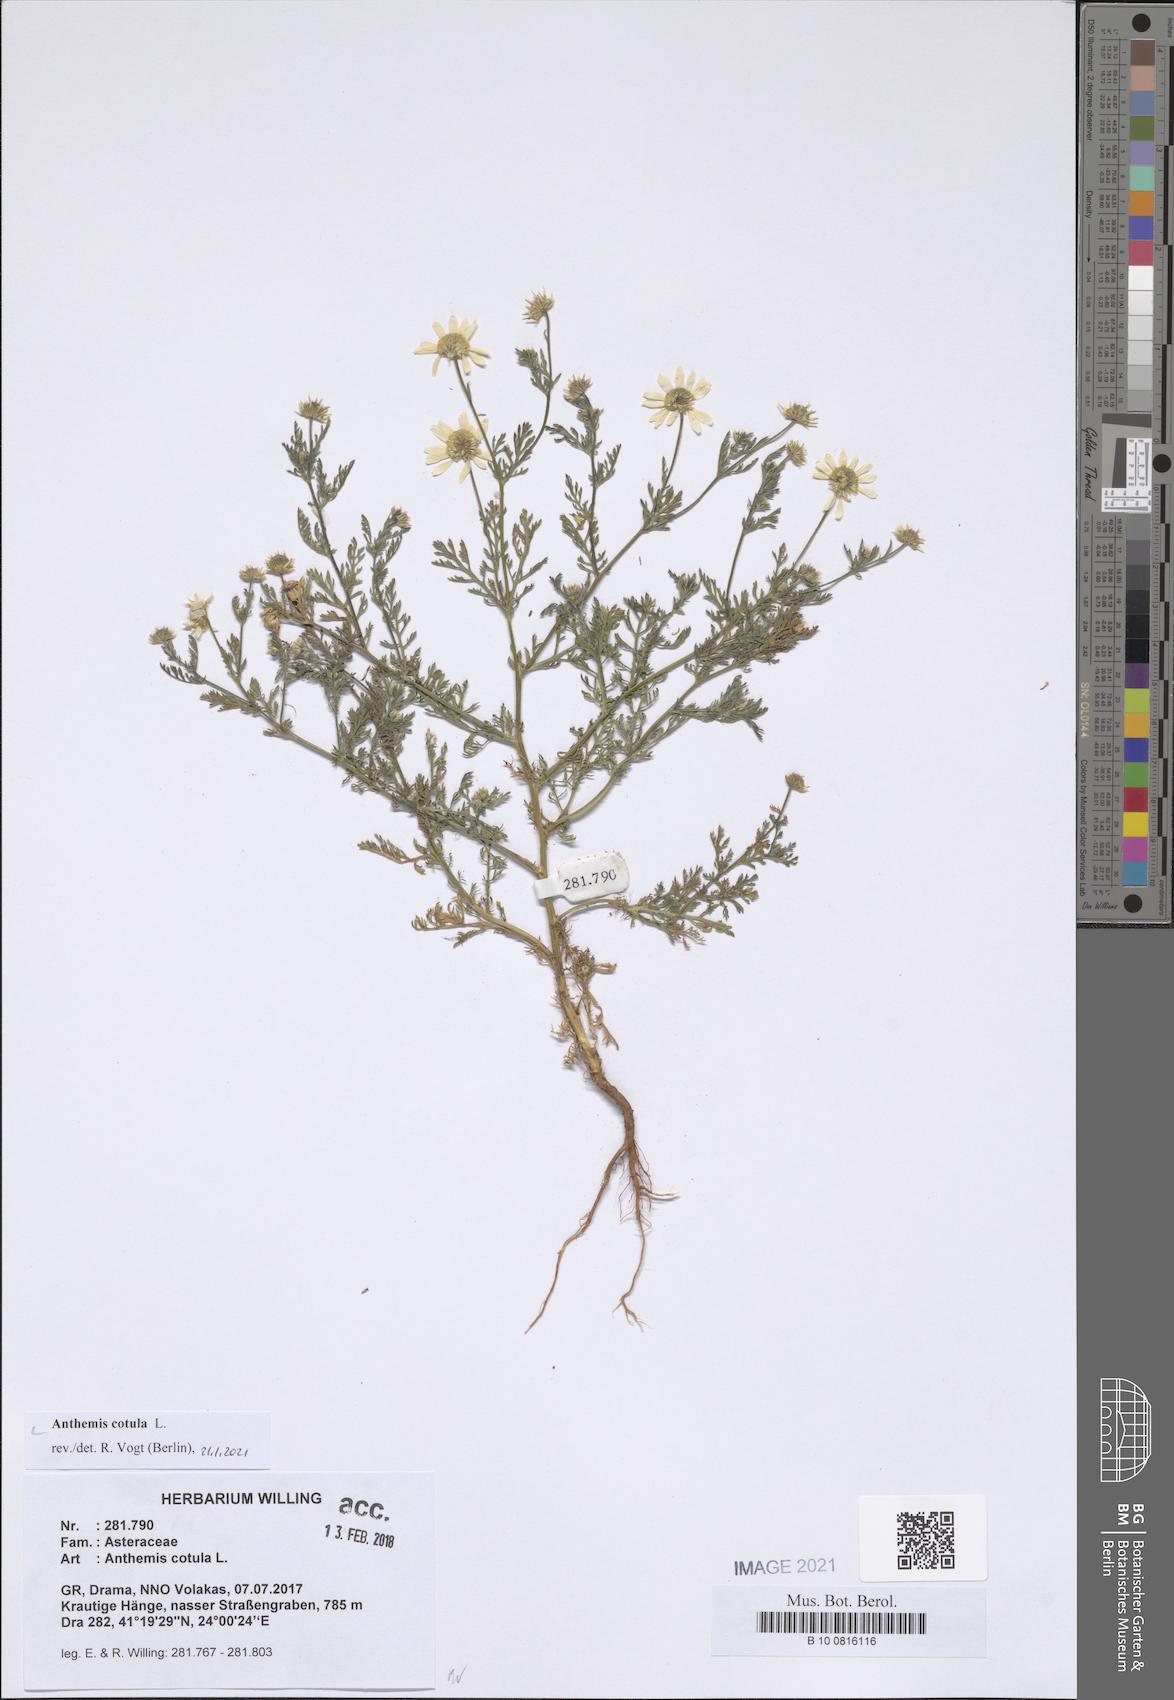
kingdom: Plantae
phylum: Tracheophyta
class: Magnoliopsida
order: Asterales
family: Asteraceae
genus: Anthemis
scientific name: Anthemis cotula
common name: Stinking chamomile
